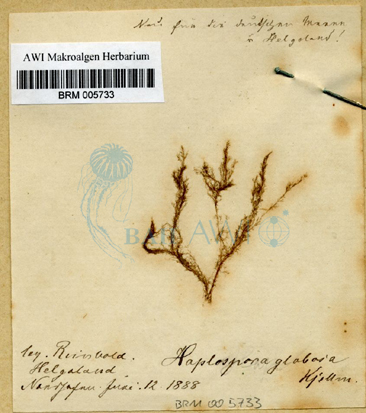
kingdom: Chromista
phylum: Ochrophyta
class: Phaeophyceae
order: Tilopteridales
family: Tilopteridaceae
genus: Haplospora
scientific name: Haplospora globosa
